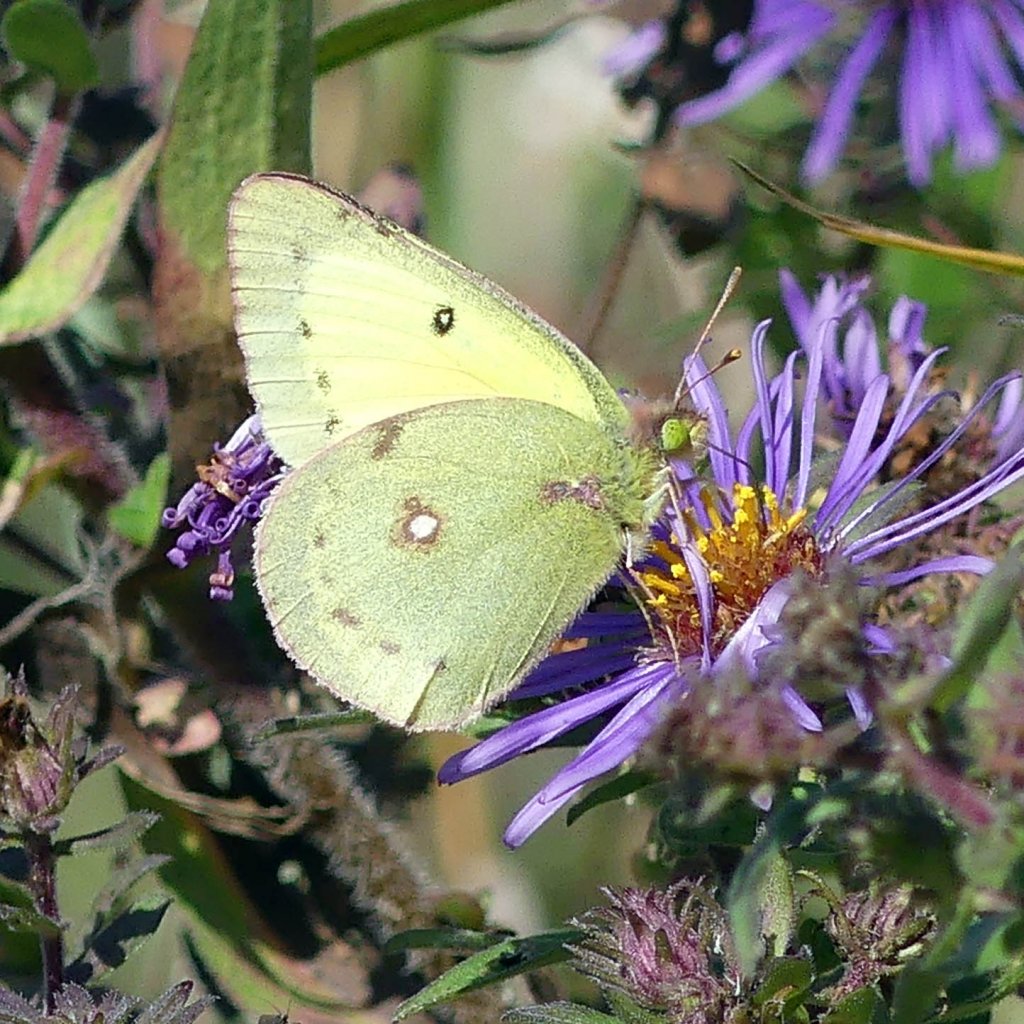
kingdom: Animalia
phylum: Arthropoda
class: Insecta
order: Lepidoptera
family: Pieridae
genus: Colias
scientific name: Colias philodice
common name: Clouded Sulphur
